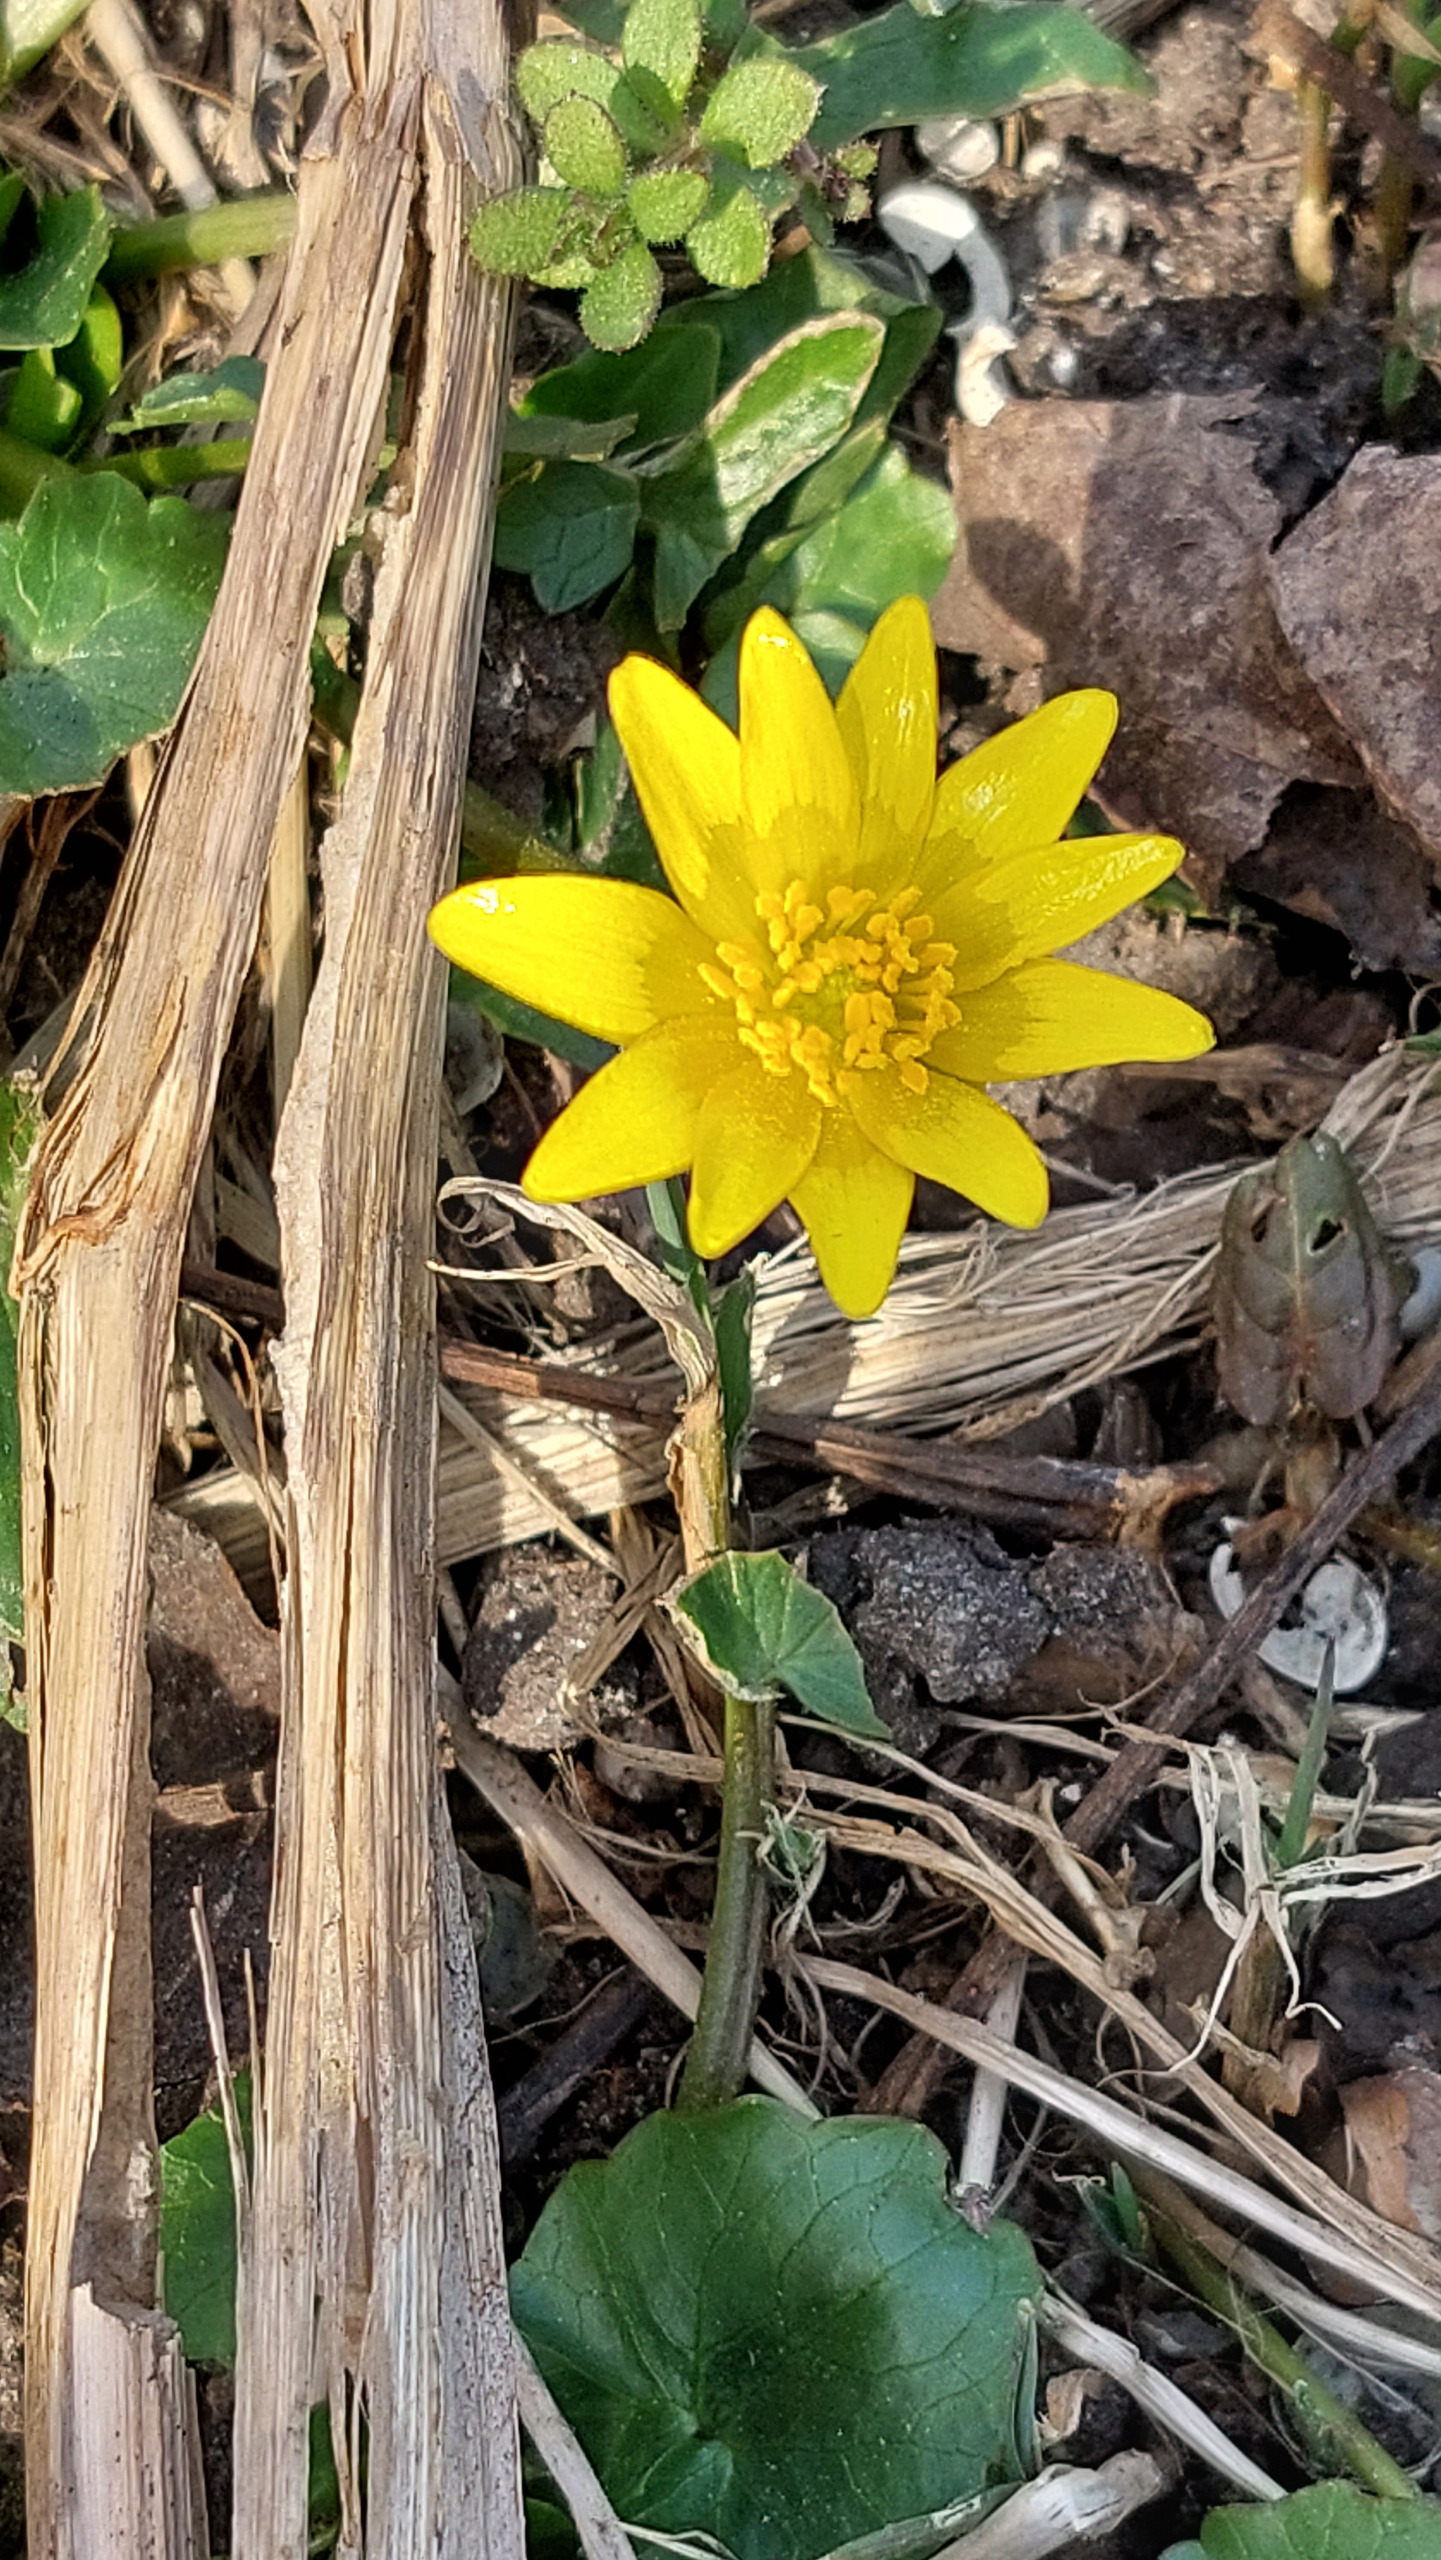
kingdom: Plantae
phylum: Tracheophyta
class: Magnoliopsida
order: Ranunculales
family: Ranunculaceae
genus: Ficaria
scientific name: Ficaria verna
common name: Vorterod
